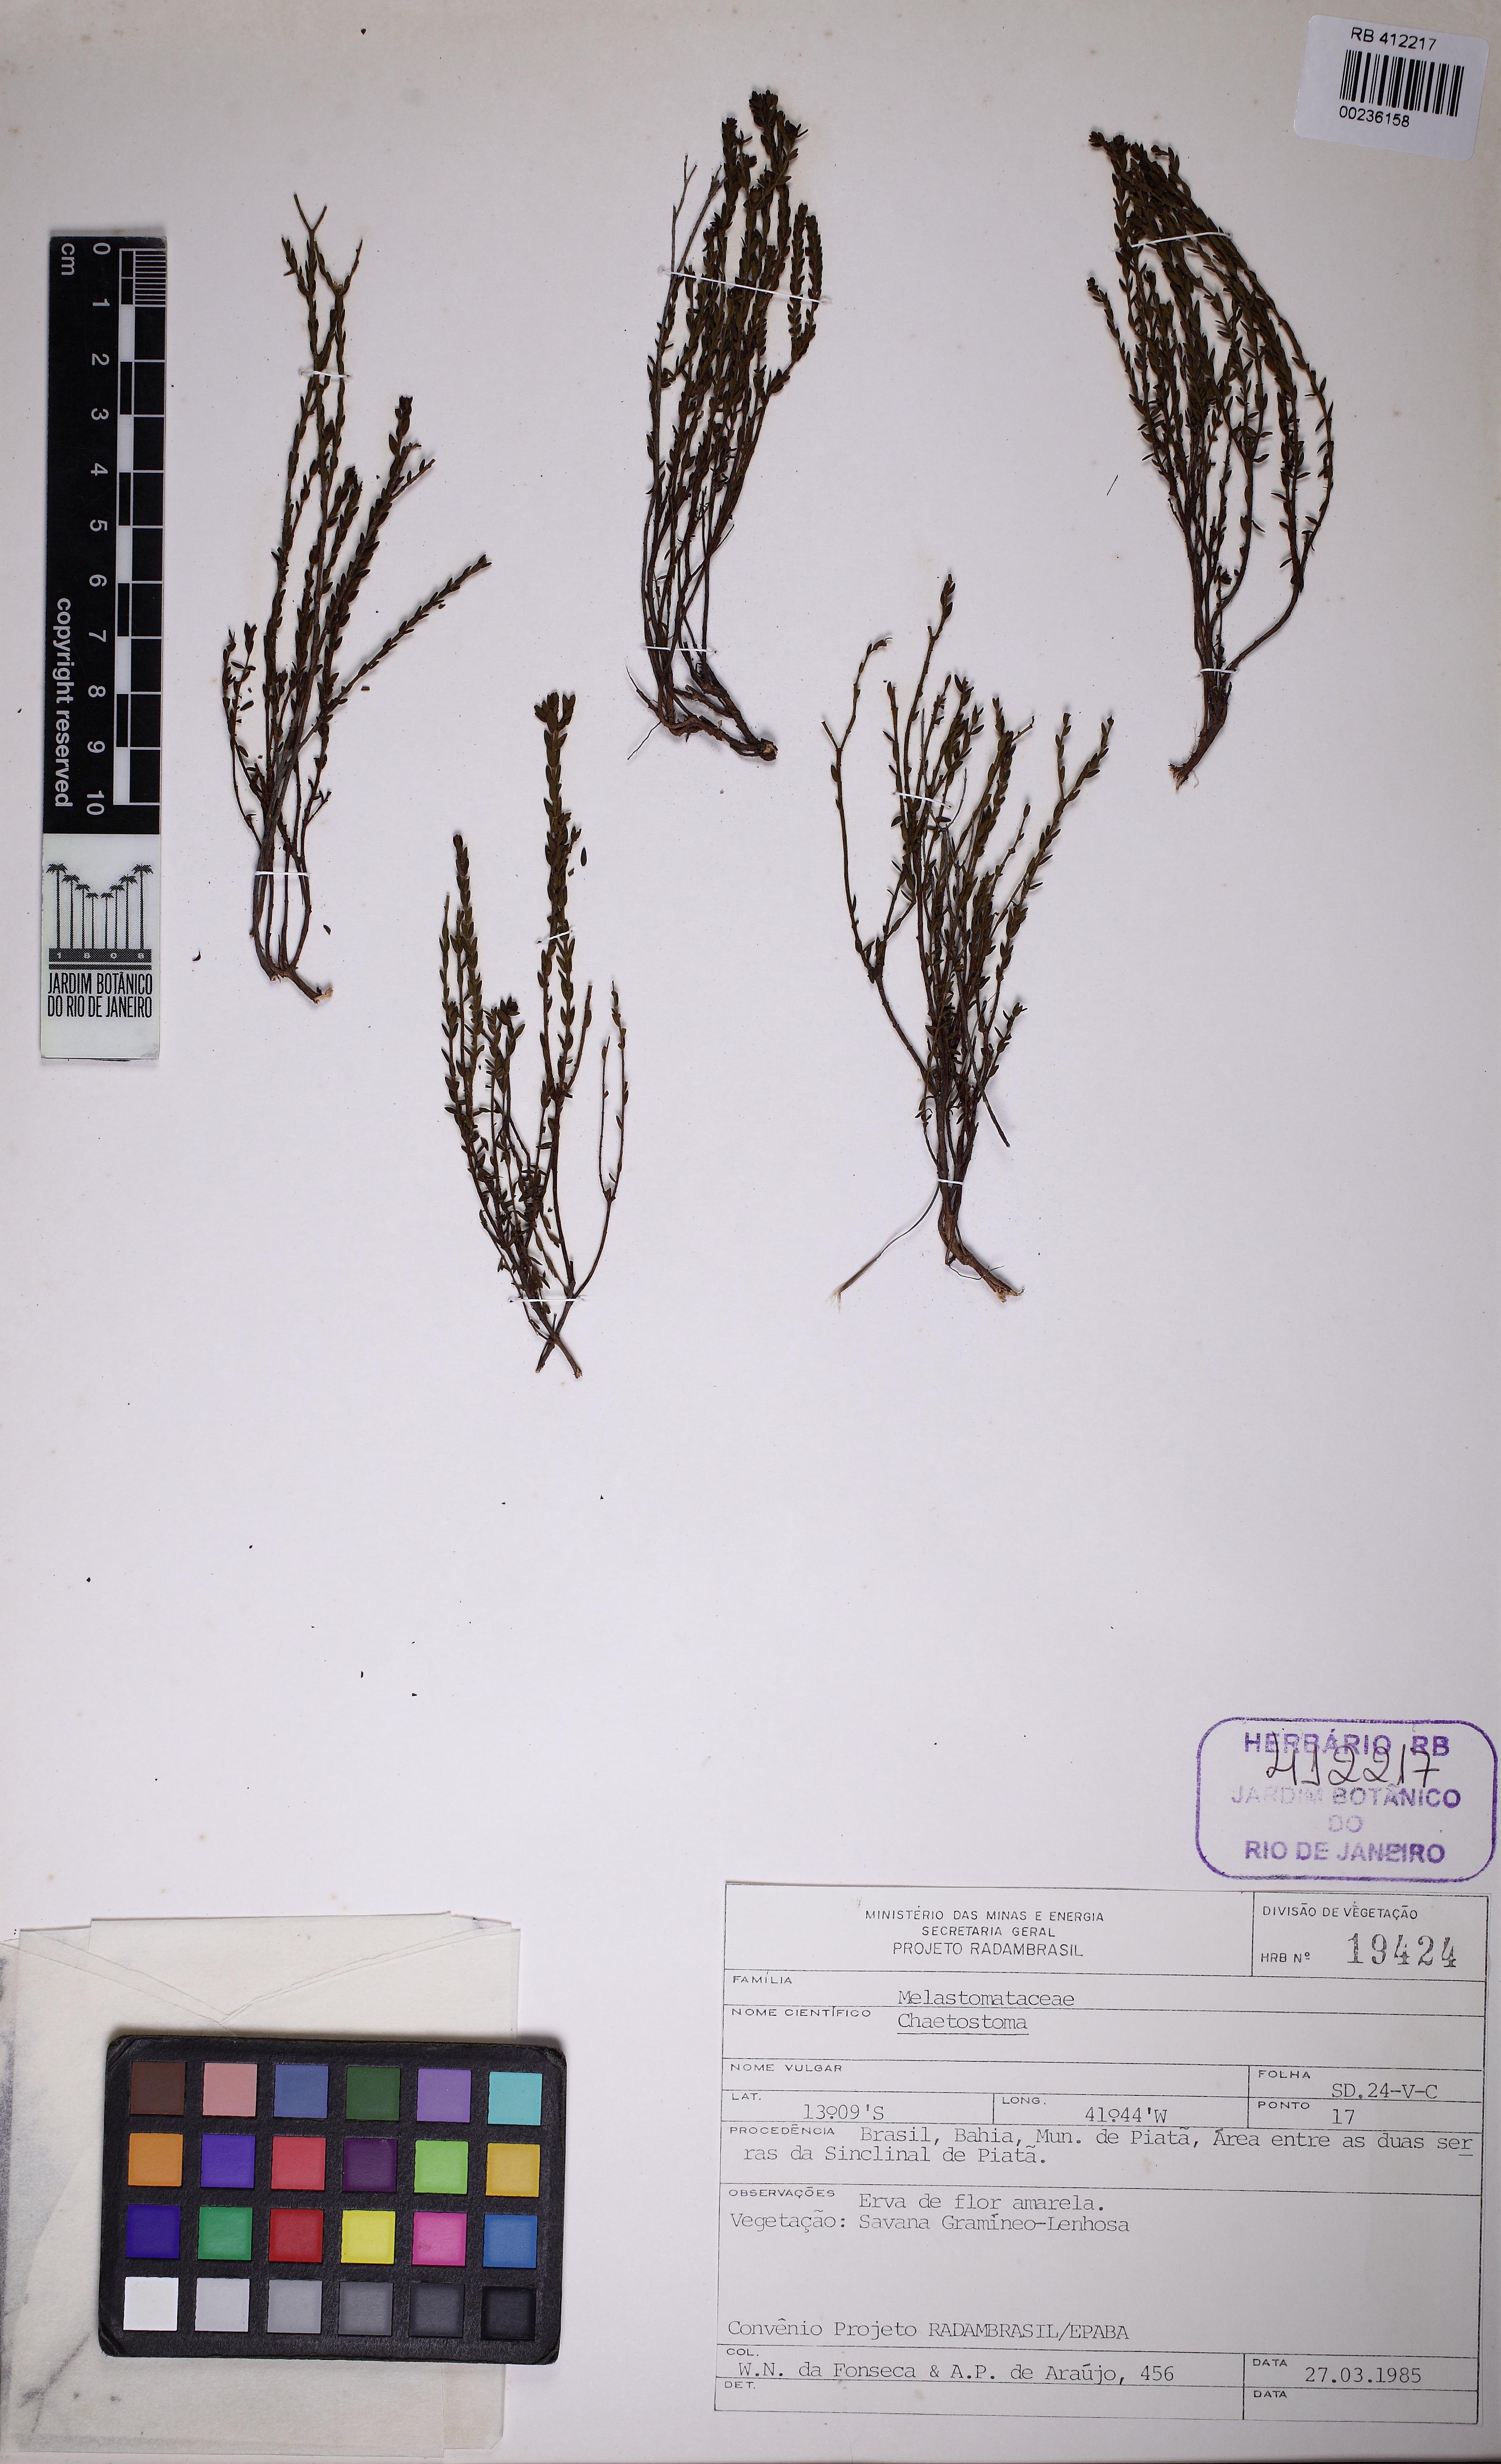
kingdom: Plantae
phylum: Tracheophyta
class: Magnoliopsida
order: Myrtales
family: Melastomataceae
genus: Microlicia
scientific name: Microlicia parvula
